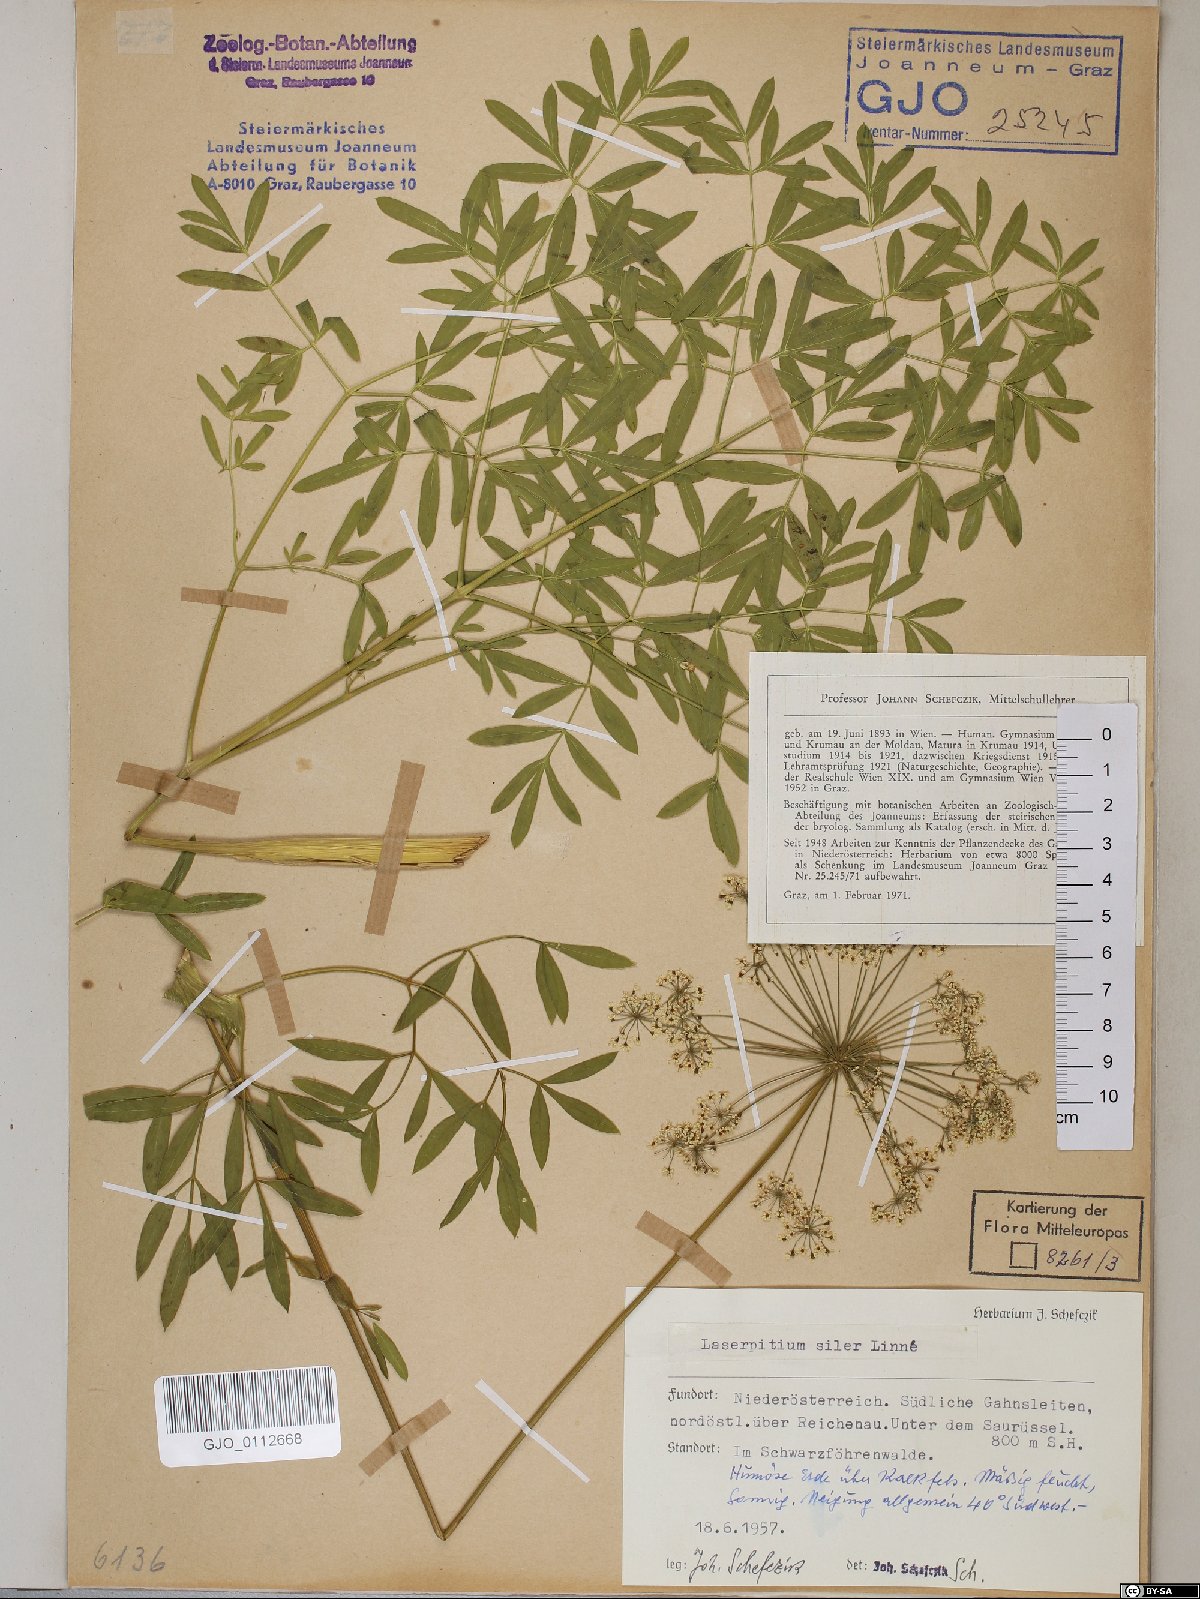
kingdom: Plantae
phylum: Tracheophyta
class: Magnoliopsida
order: Apiales
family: Apiaceae
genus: Siler
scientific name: Siler montanum
